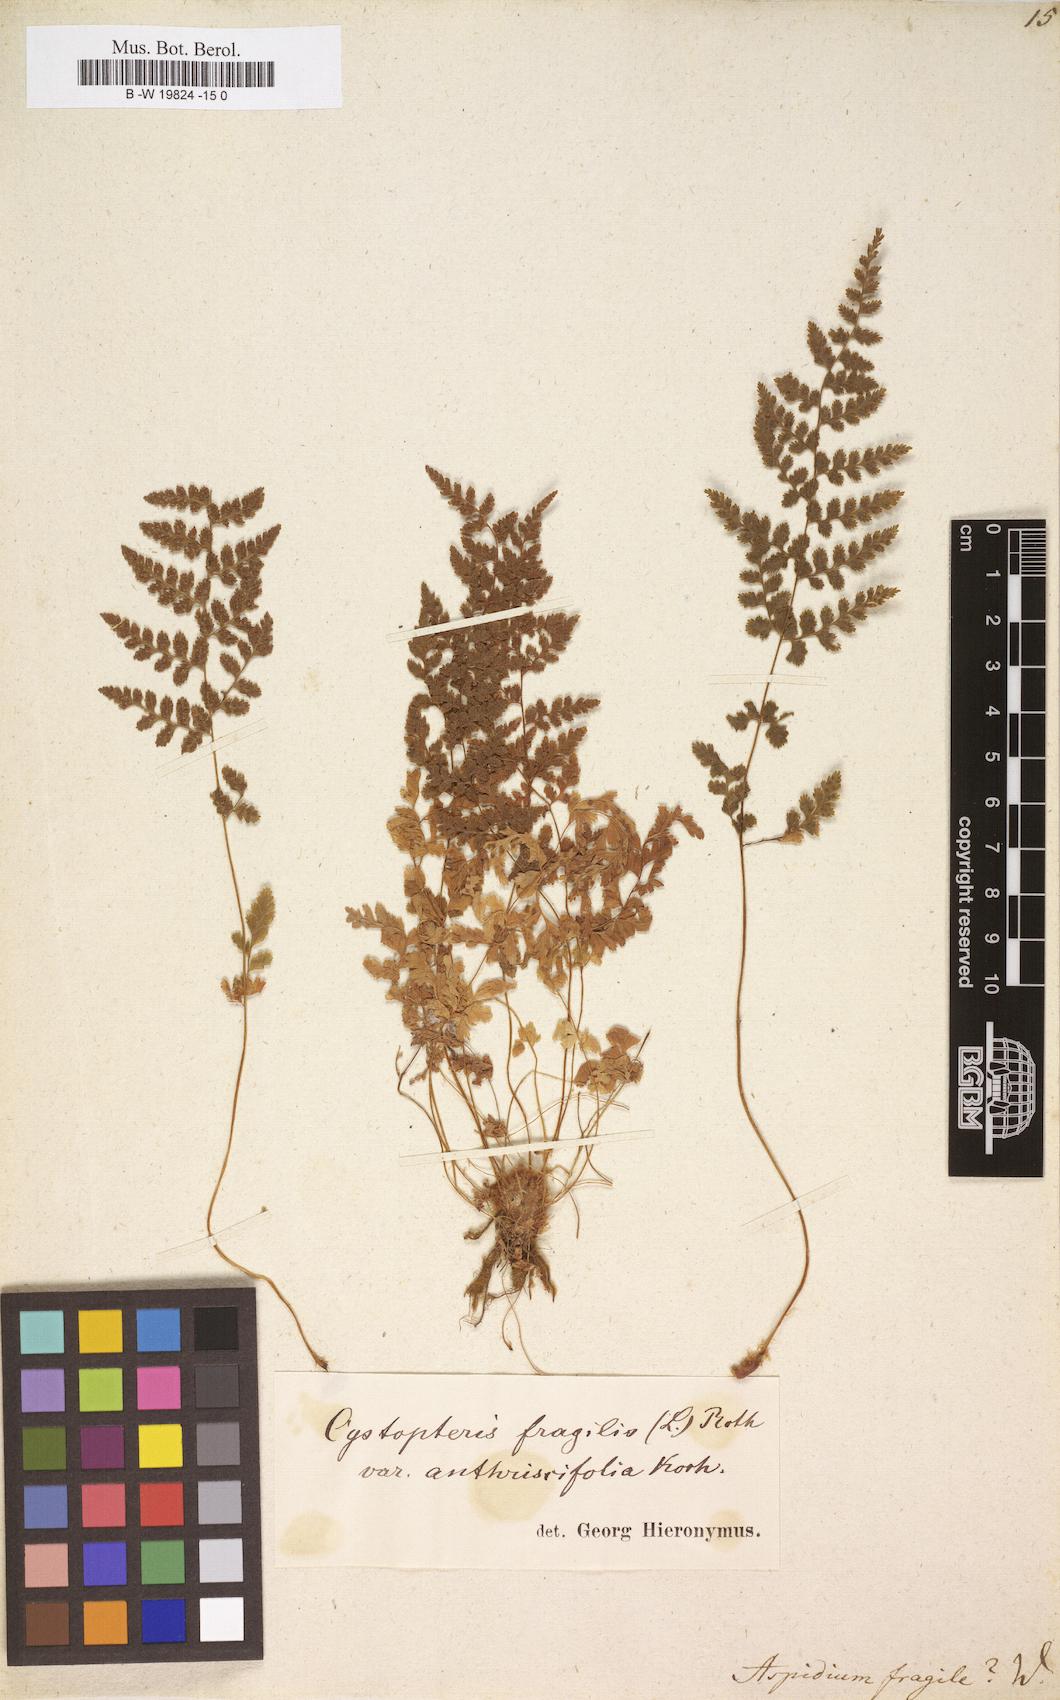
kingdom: Plantae
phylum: Tracheophyta
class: Polypodiopsida
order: Polypodiales
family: Cystopteridaceae
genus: Cystopteris
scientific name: Cystopteris fragilis
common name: Brittle bladder fern
